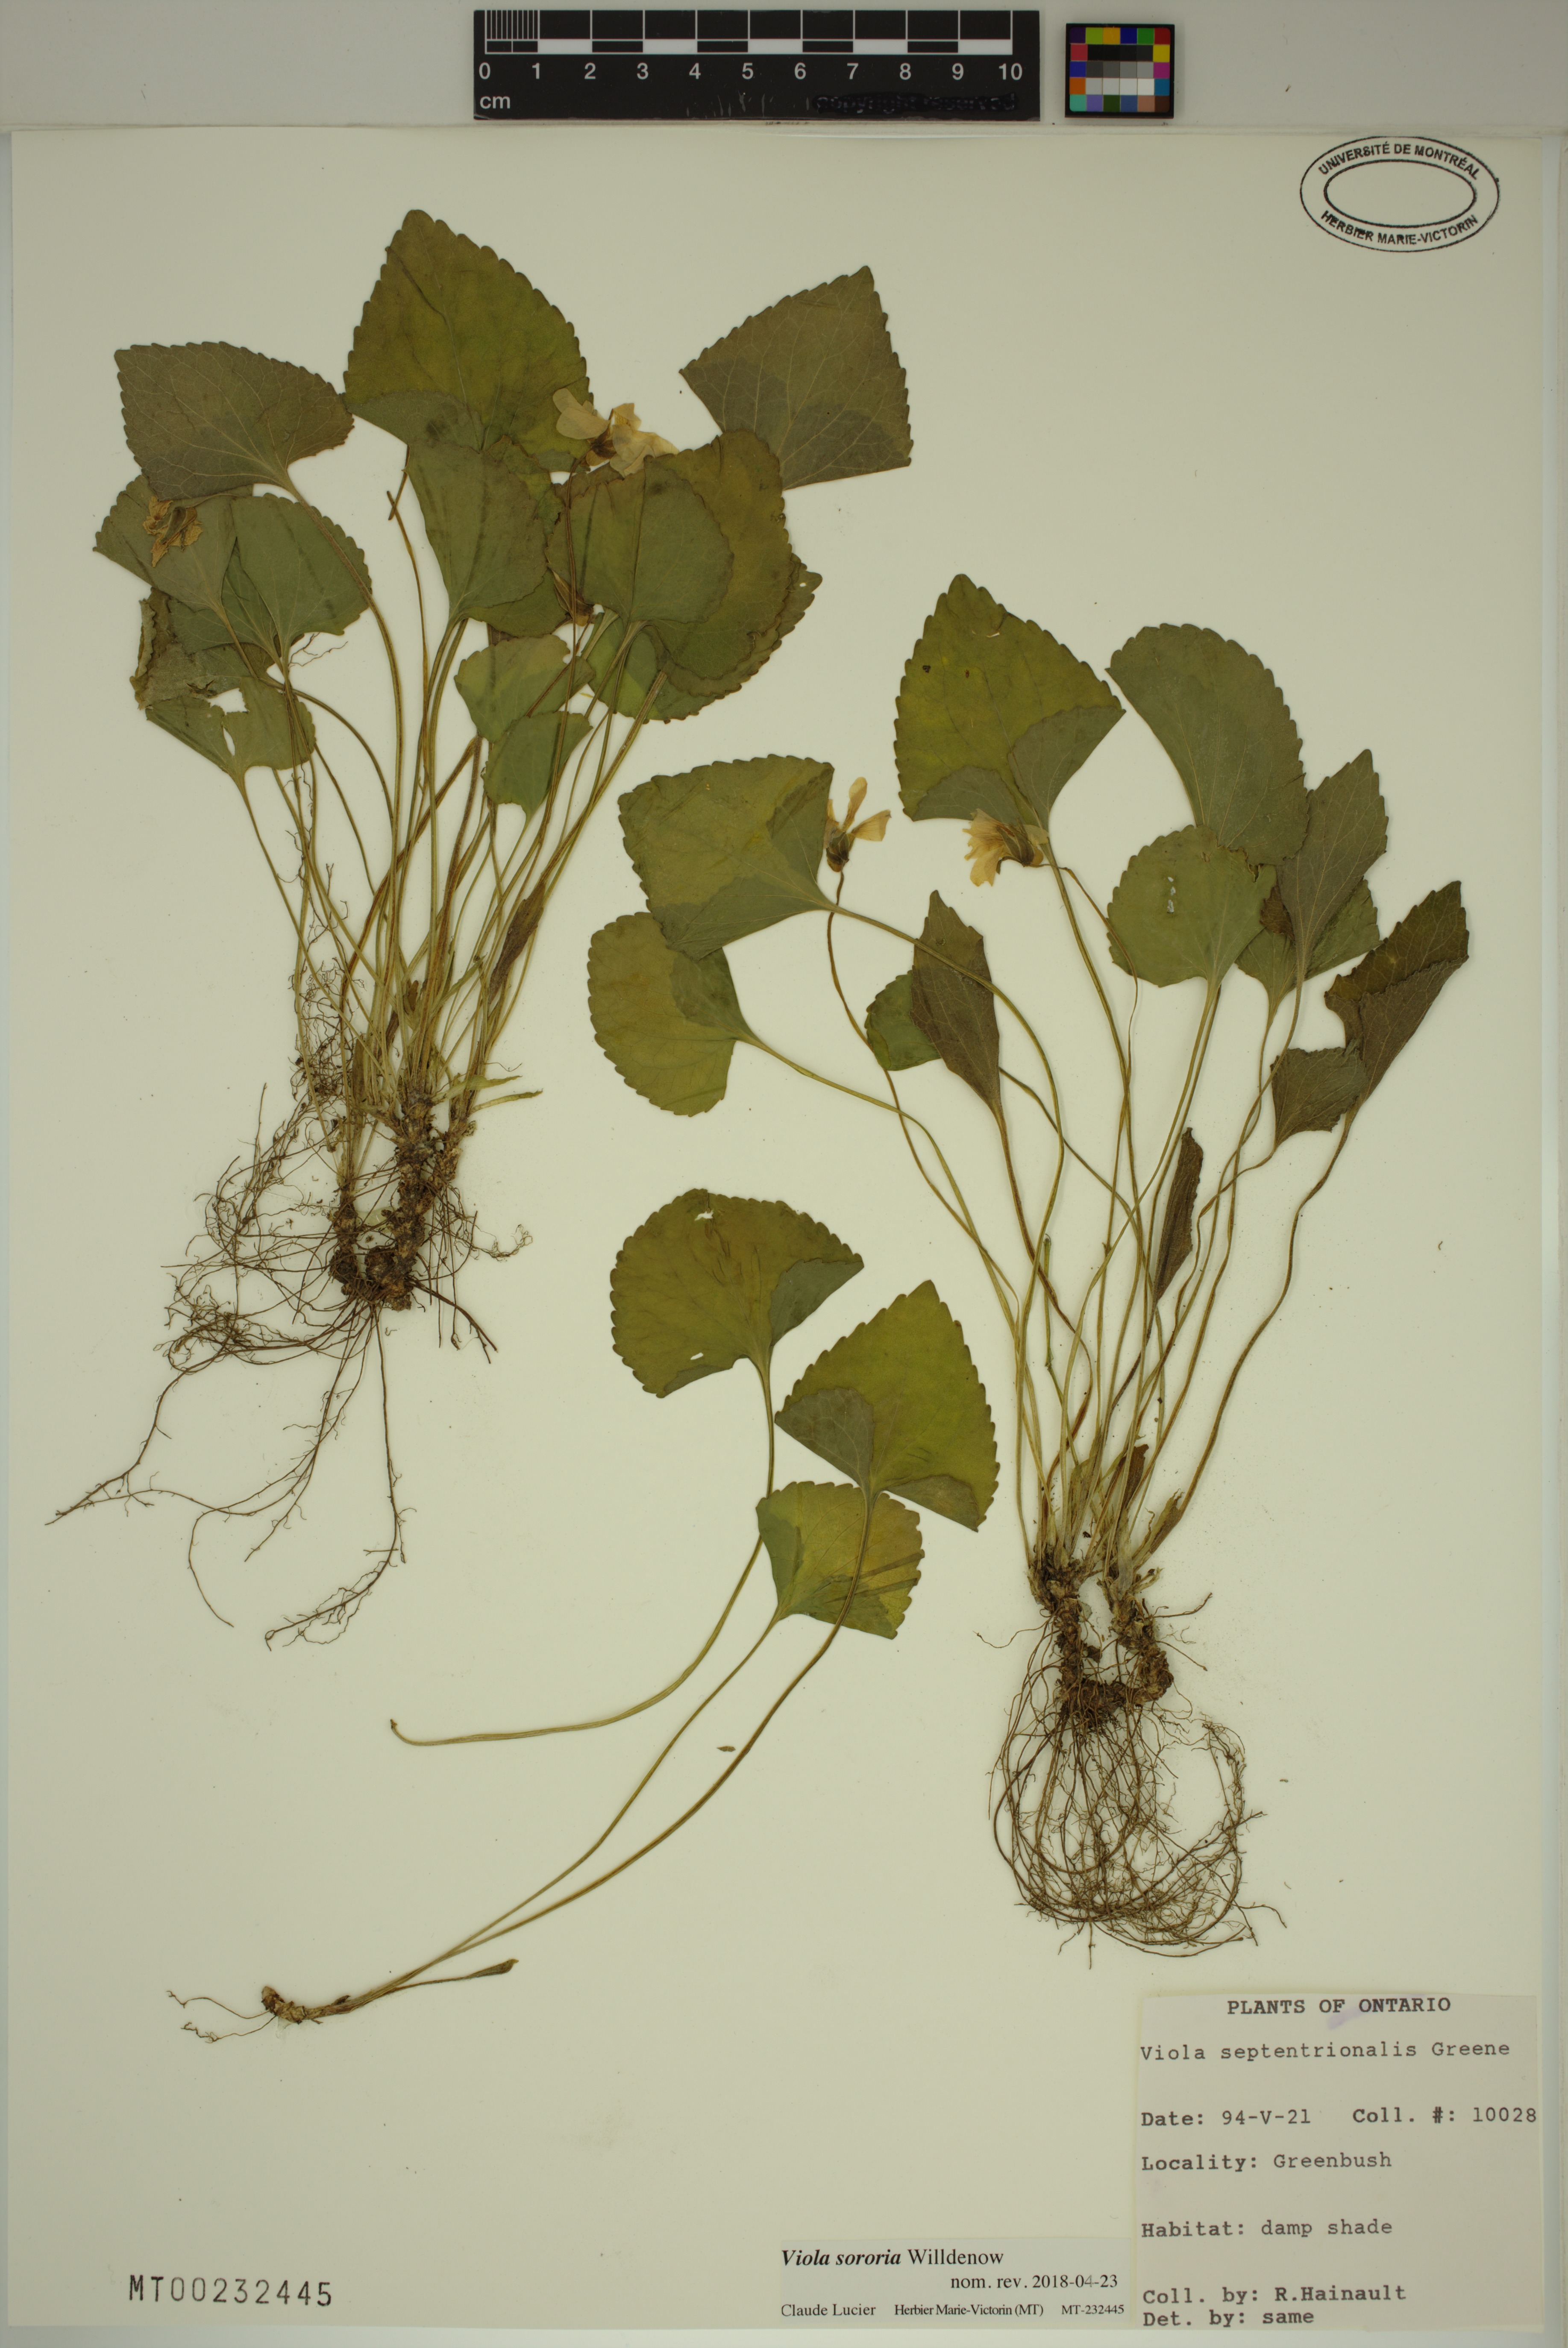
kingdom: Plantae
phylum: Tracheophyta
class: Magnoliopsida
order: Malpighiales
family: Violaceae
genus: Viola
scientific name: Viola sororia
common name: Dooryard violet
